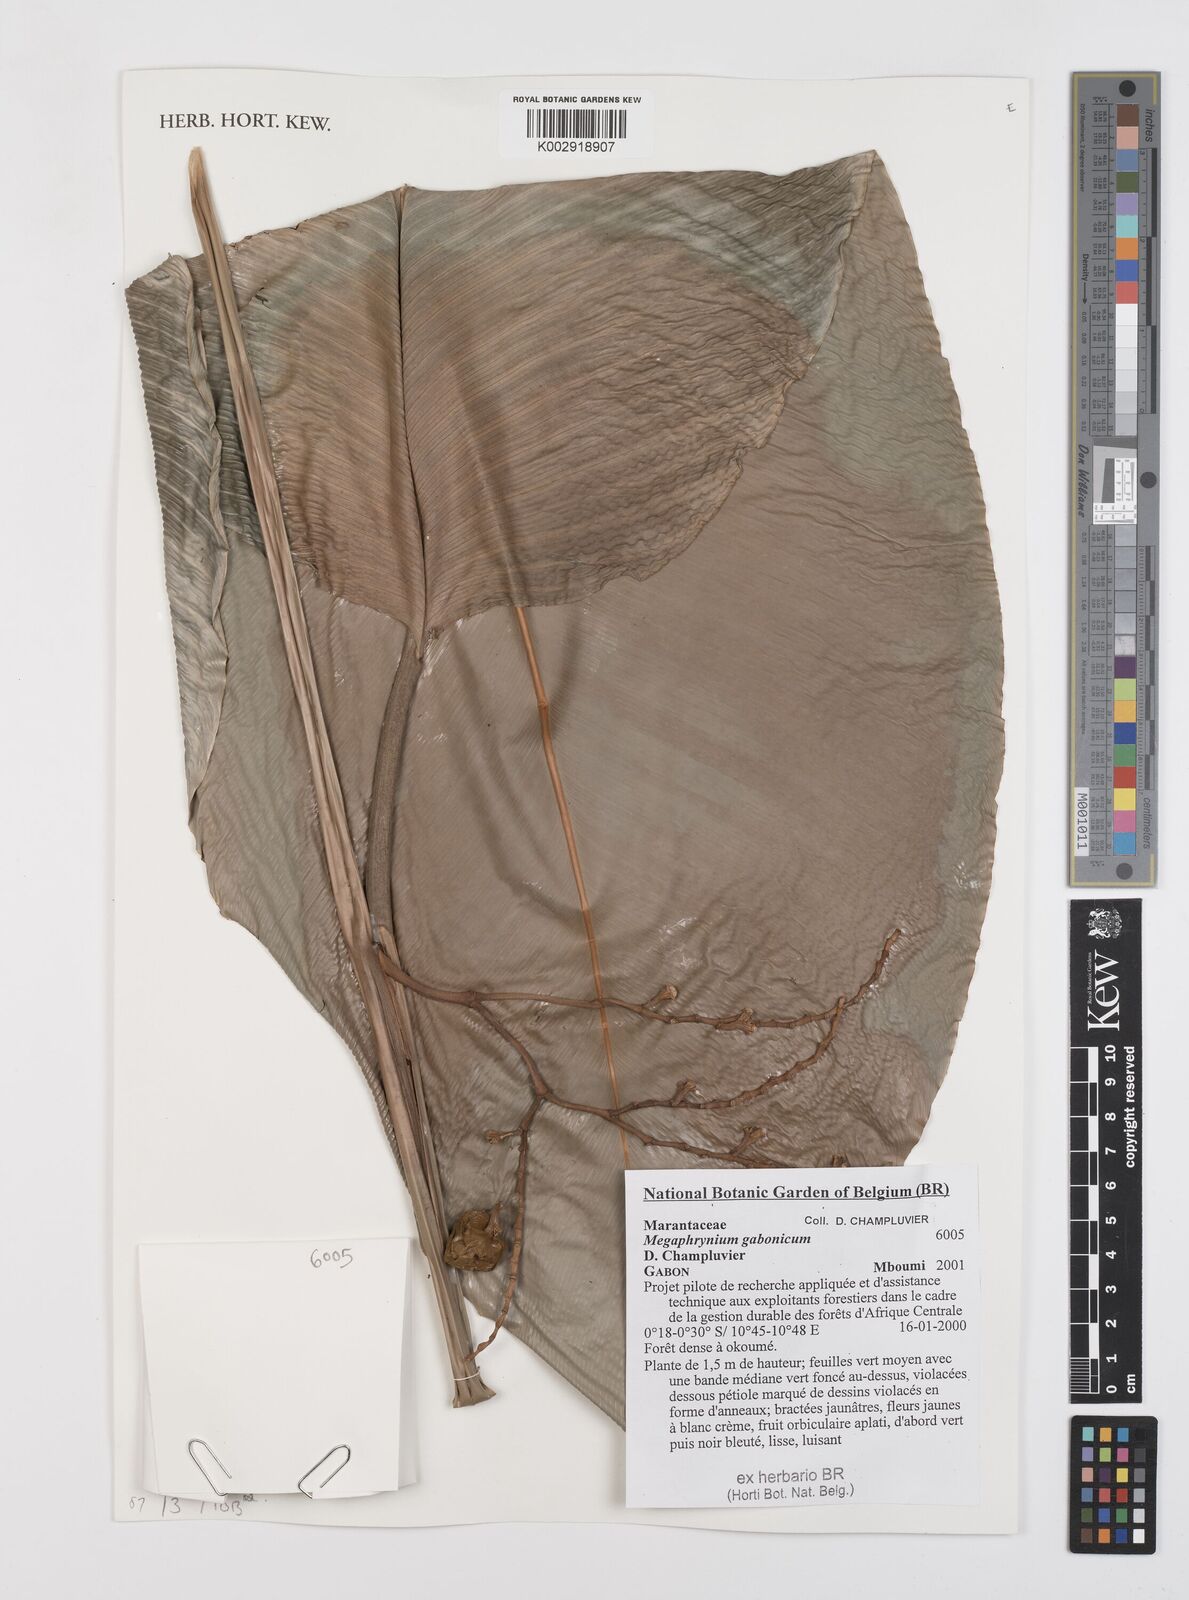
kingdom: Plantae
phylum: Tracheophyta
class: Liliopsida
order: Zingiberales
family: Marantaceae
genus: Megaphrynium
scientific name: Megaphrynium gabonense
